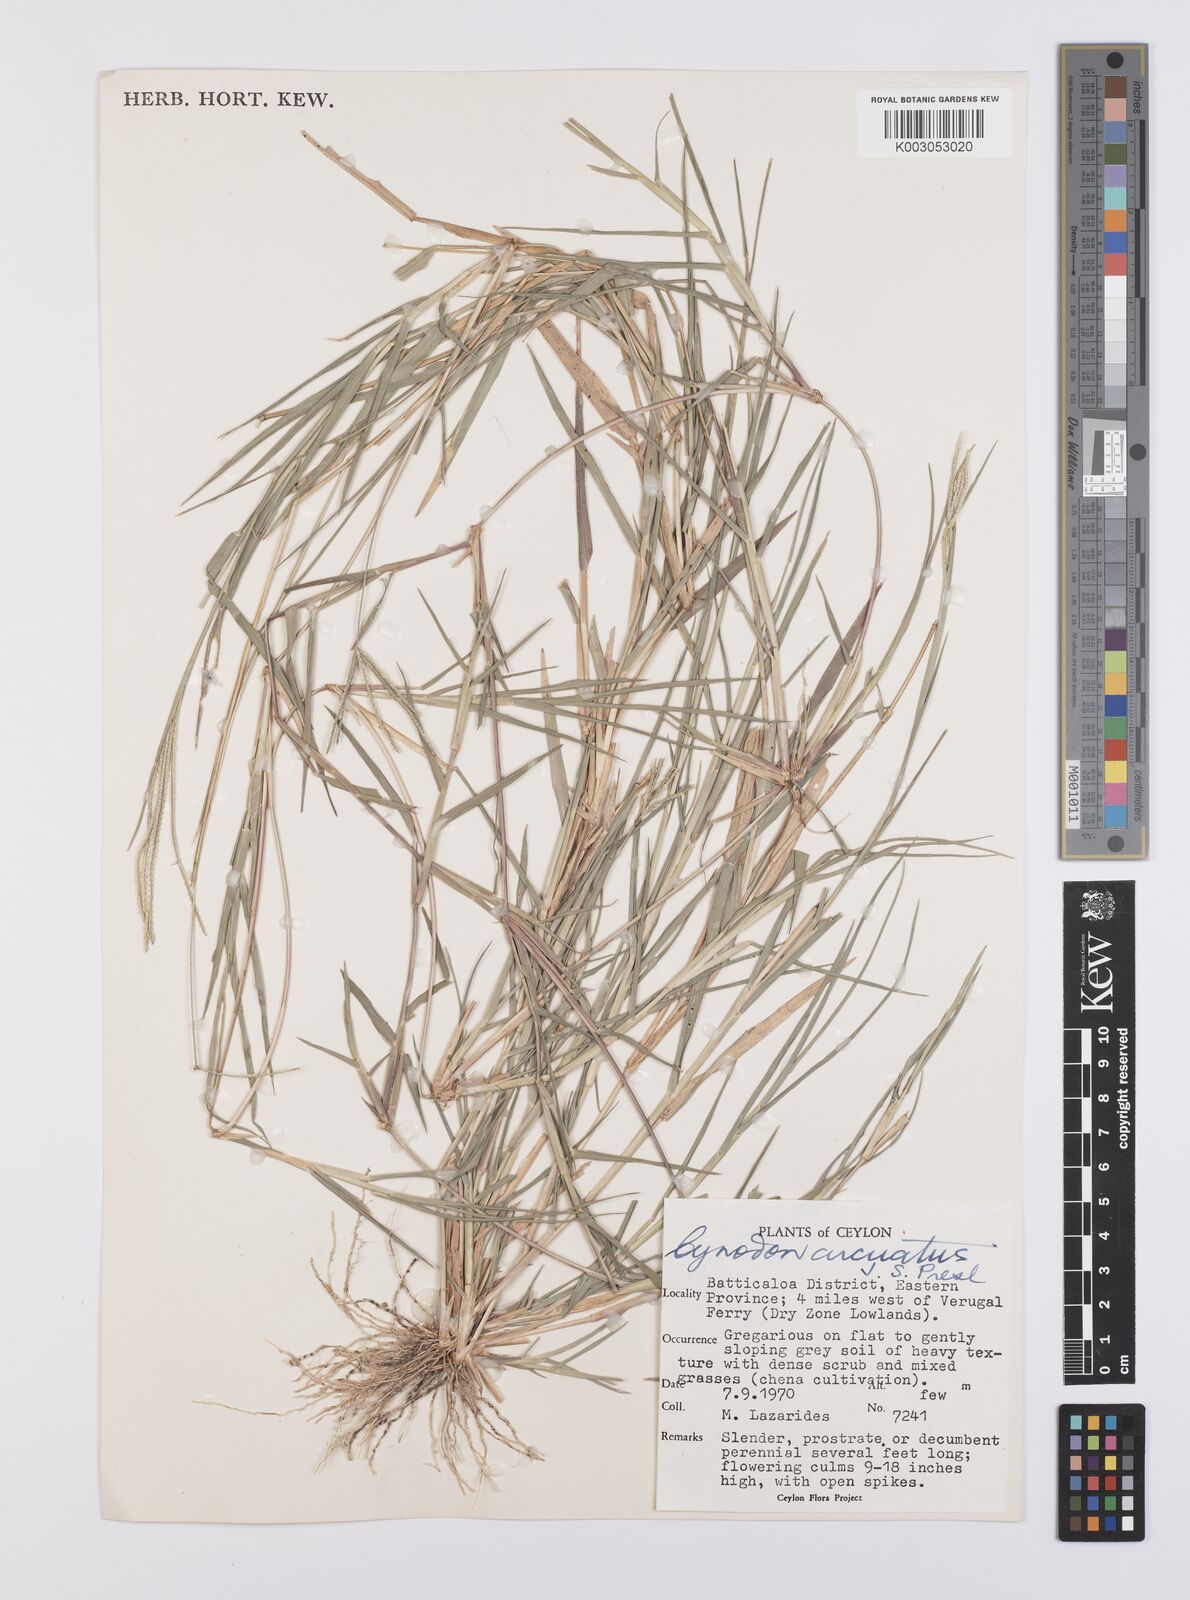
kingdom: Plantae
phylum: Tracheophyta
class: Liliopsida
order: Poales
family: Poaceae
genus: Cynodon
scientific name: Cynodon radiatus
